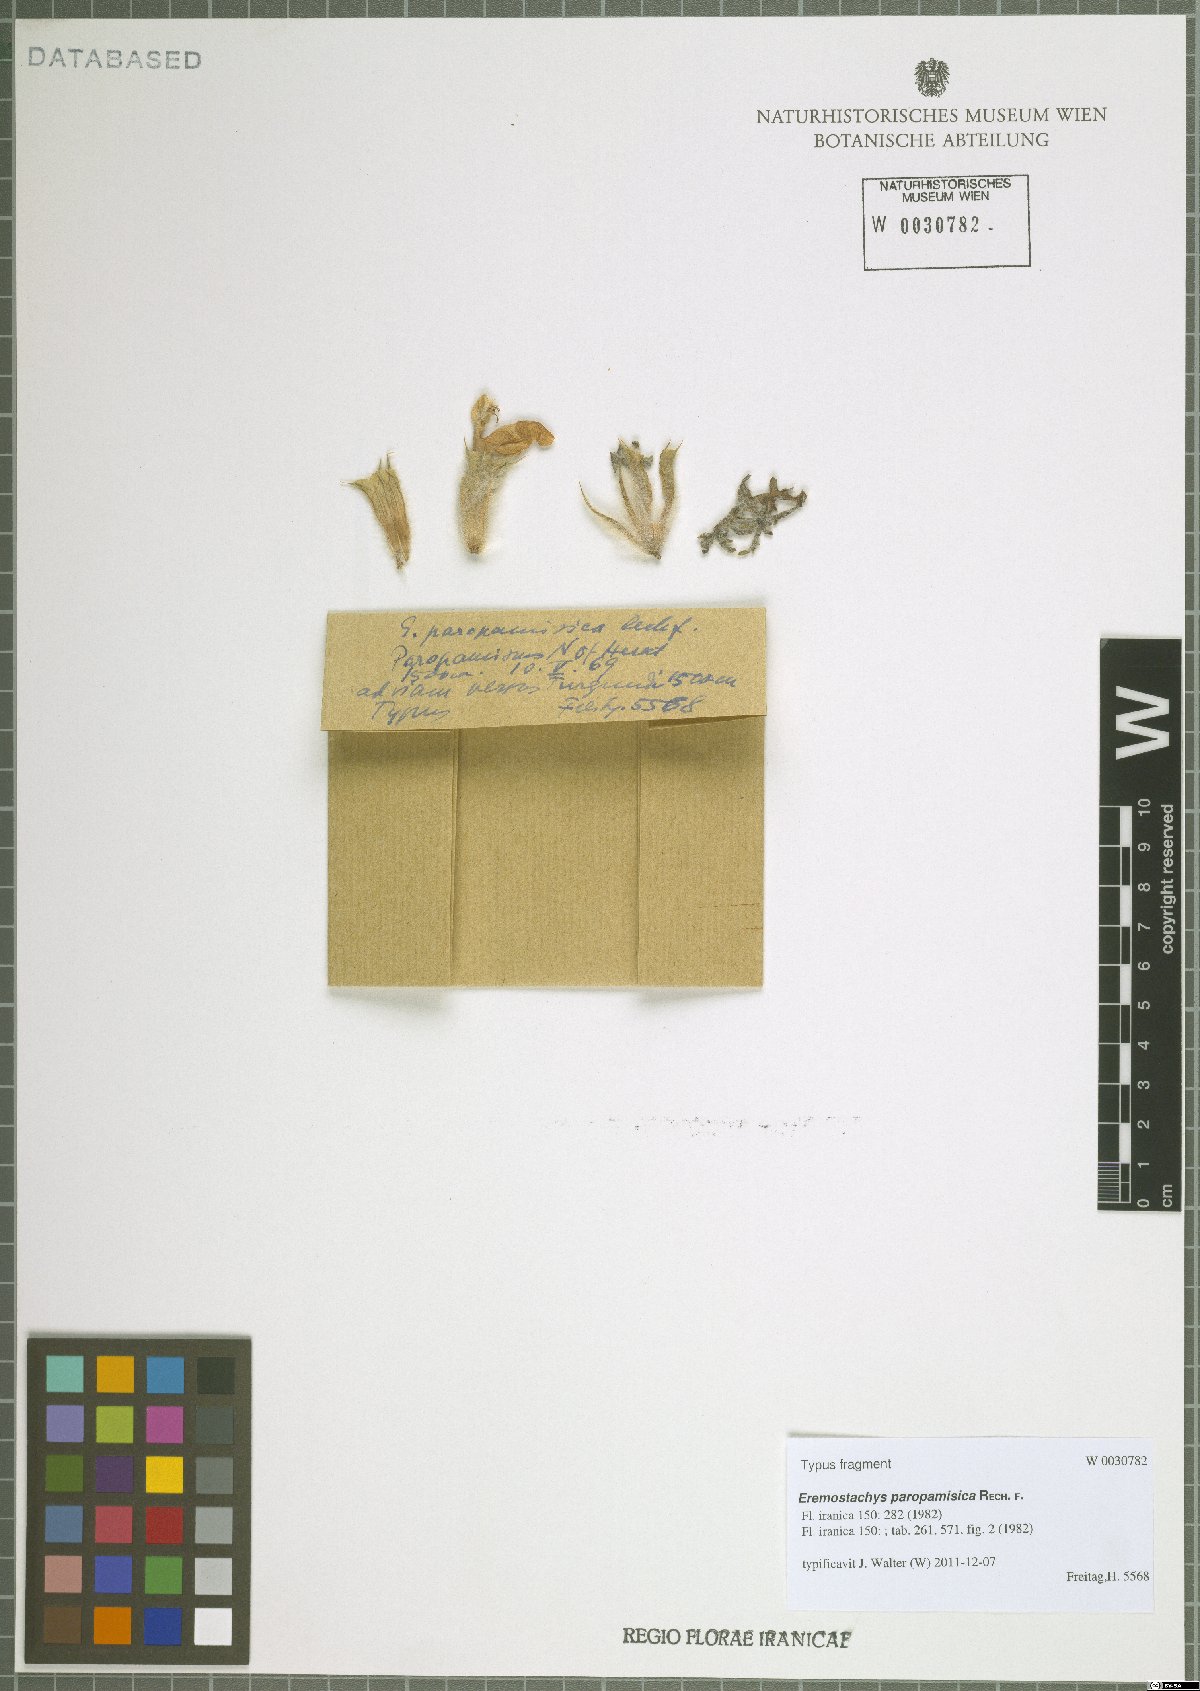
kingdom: Plantae
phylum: Tracheophyta
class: Magnoliopsida
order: Lamiales
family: Lamiaceae
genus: Phlomoides
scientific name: Phlomoides paropamisica
